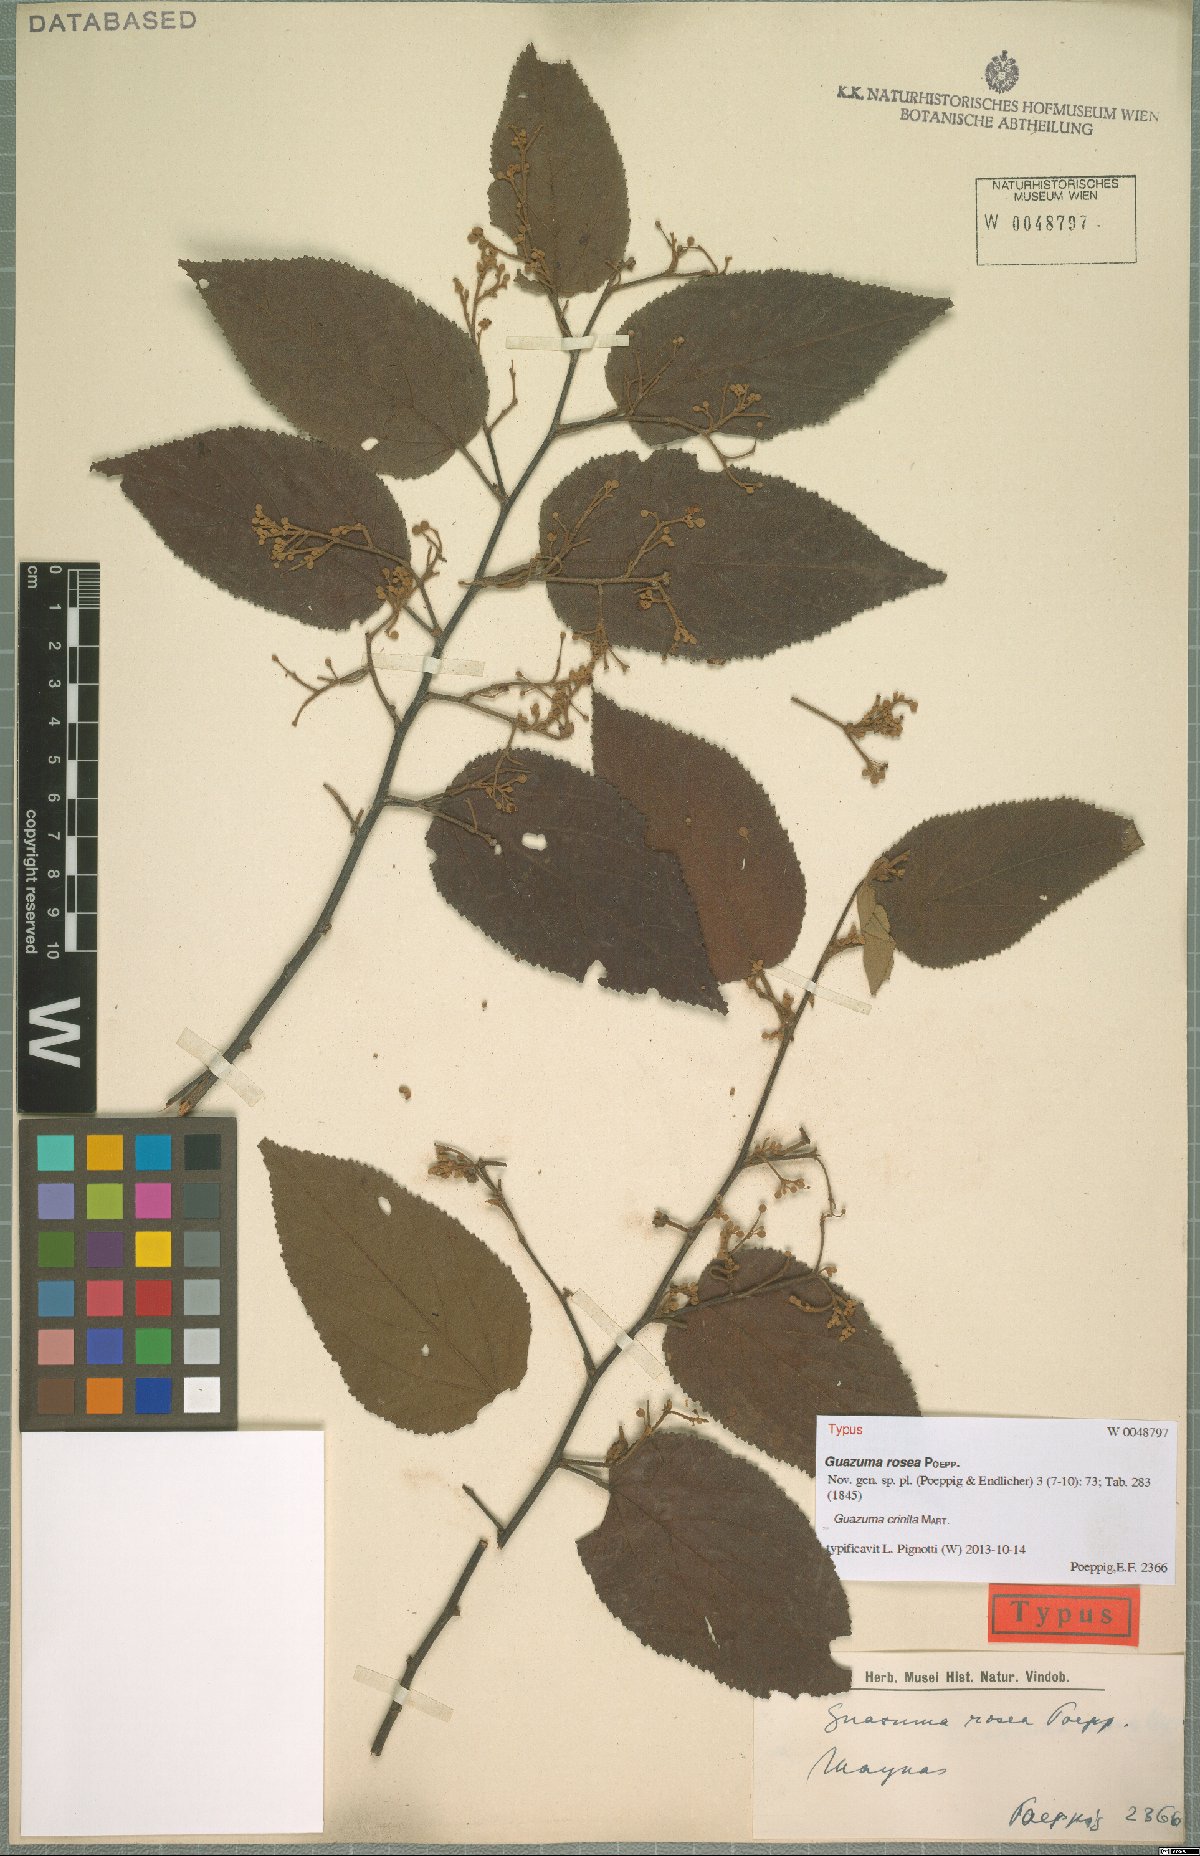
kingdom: Plantae
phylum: Tracheophyta
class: Magnoliopsida
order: Malvales
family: Malvaceae
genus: Guazuma
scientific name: Guazuma crinita
